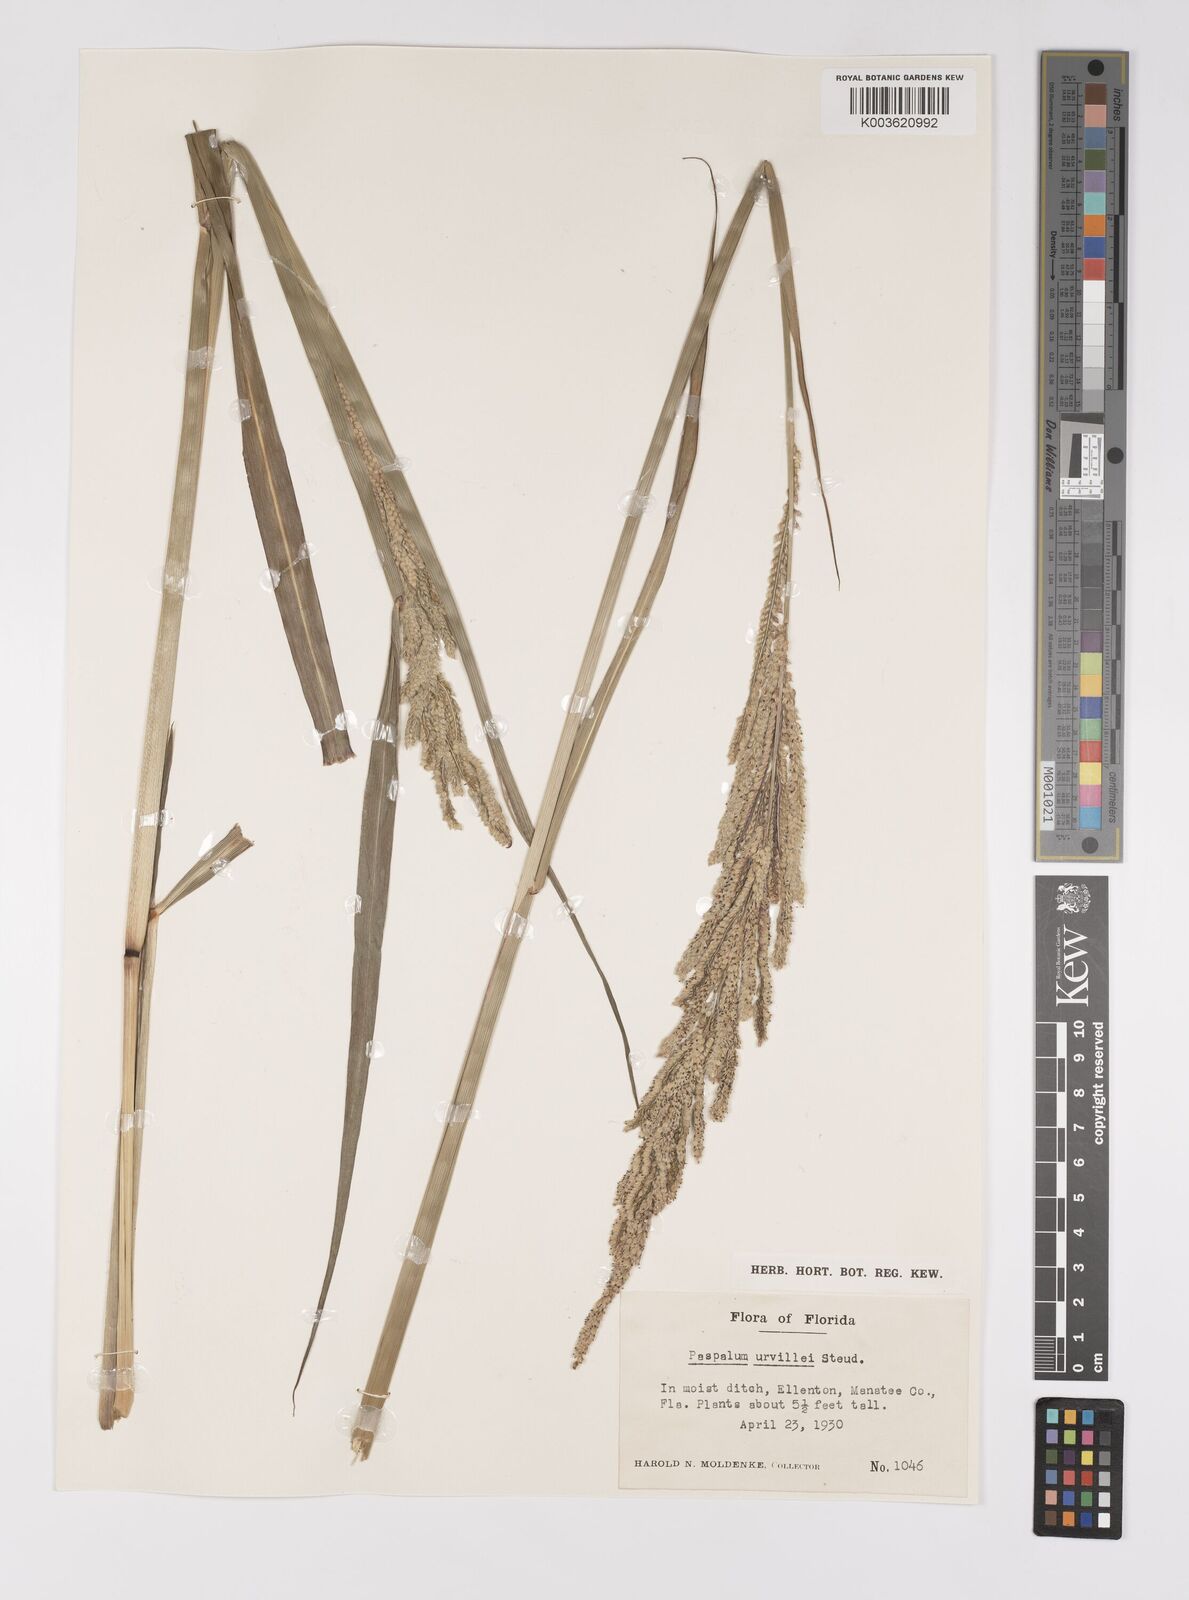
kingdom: Plantae
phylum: Tracheophyta
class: Liliopsida
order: Poales
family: Poaceae
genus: Paspalum
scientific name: Paspalum urvillei
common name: Vasey's grass
